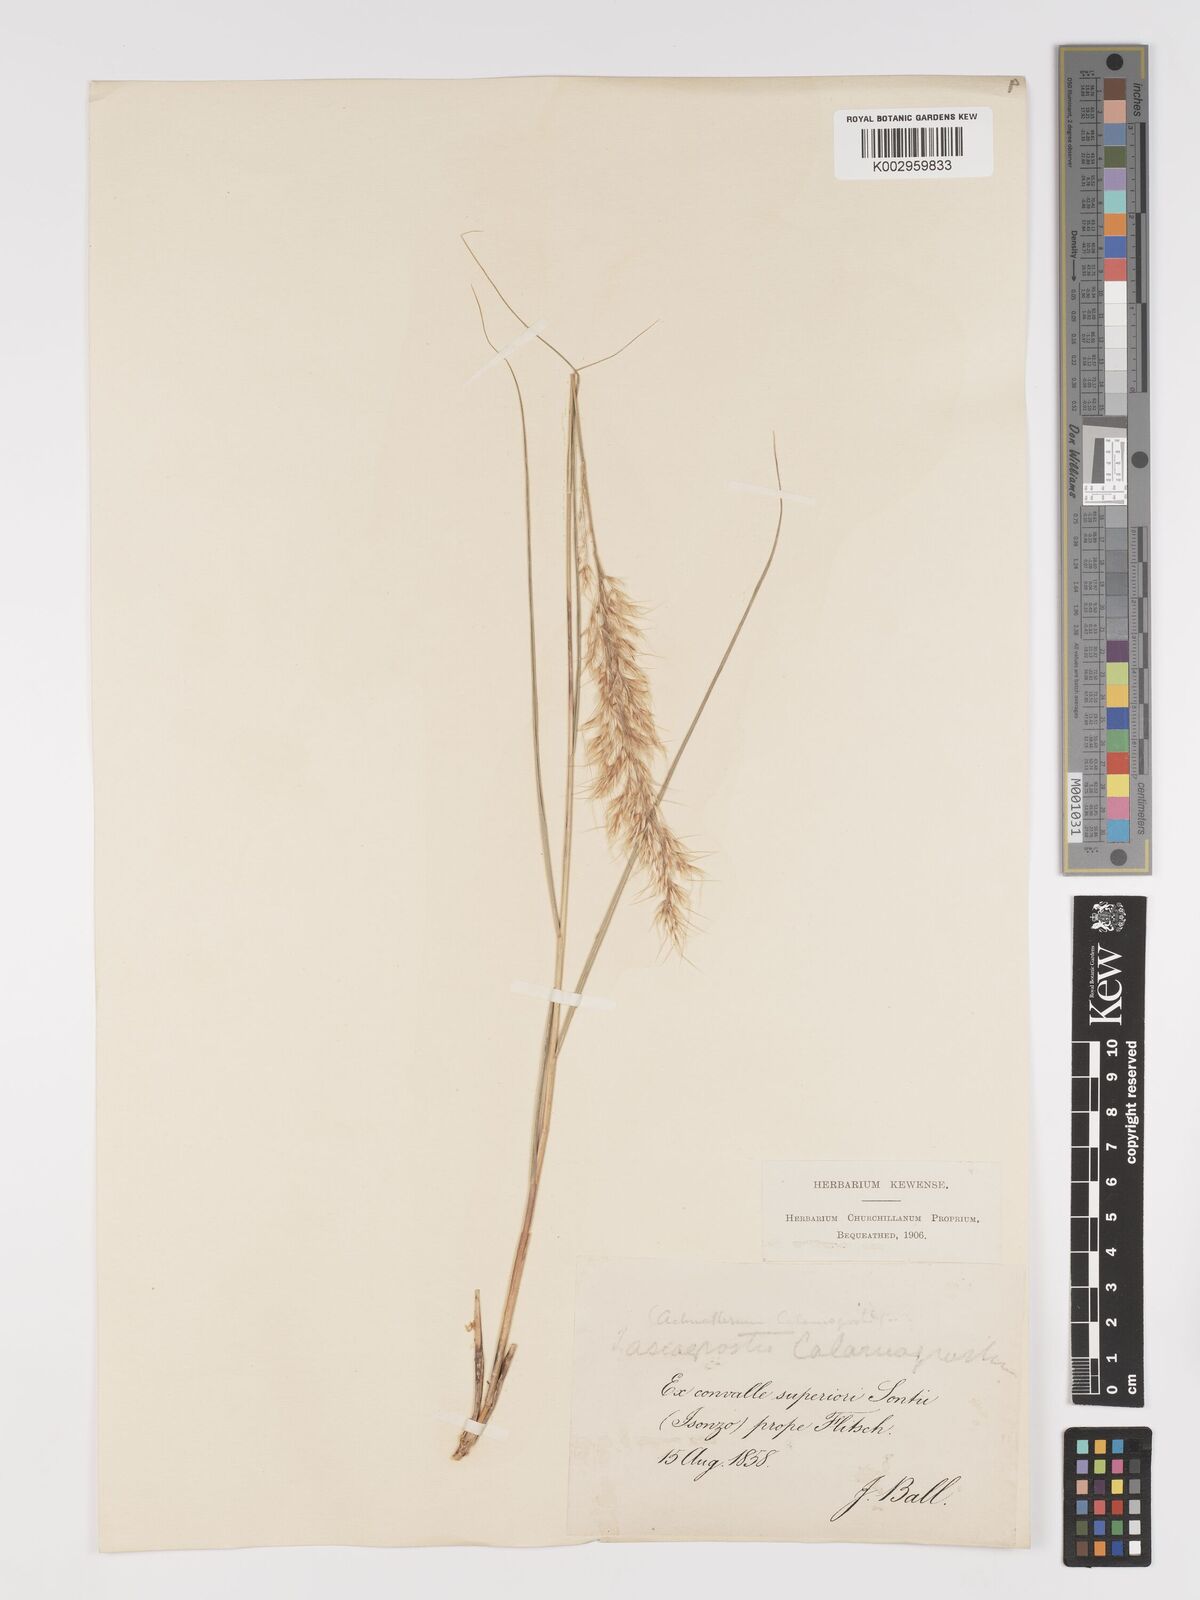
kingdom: Plantae
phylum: Tracheophyta
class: Liliopsida
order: Poales
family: Poaceae
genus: Achnatherum
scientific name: Achnatherum calamagrostis
